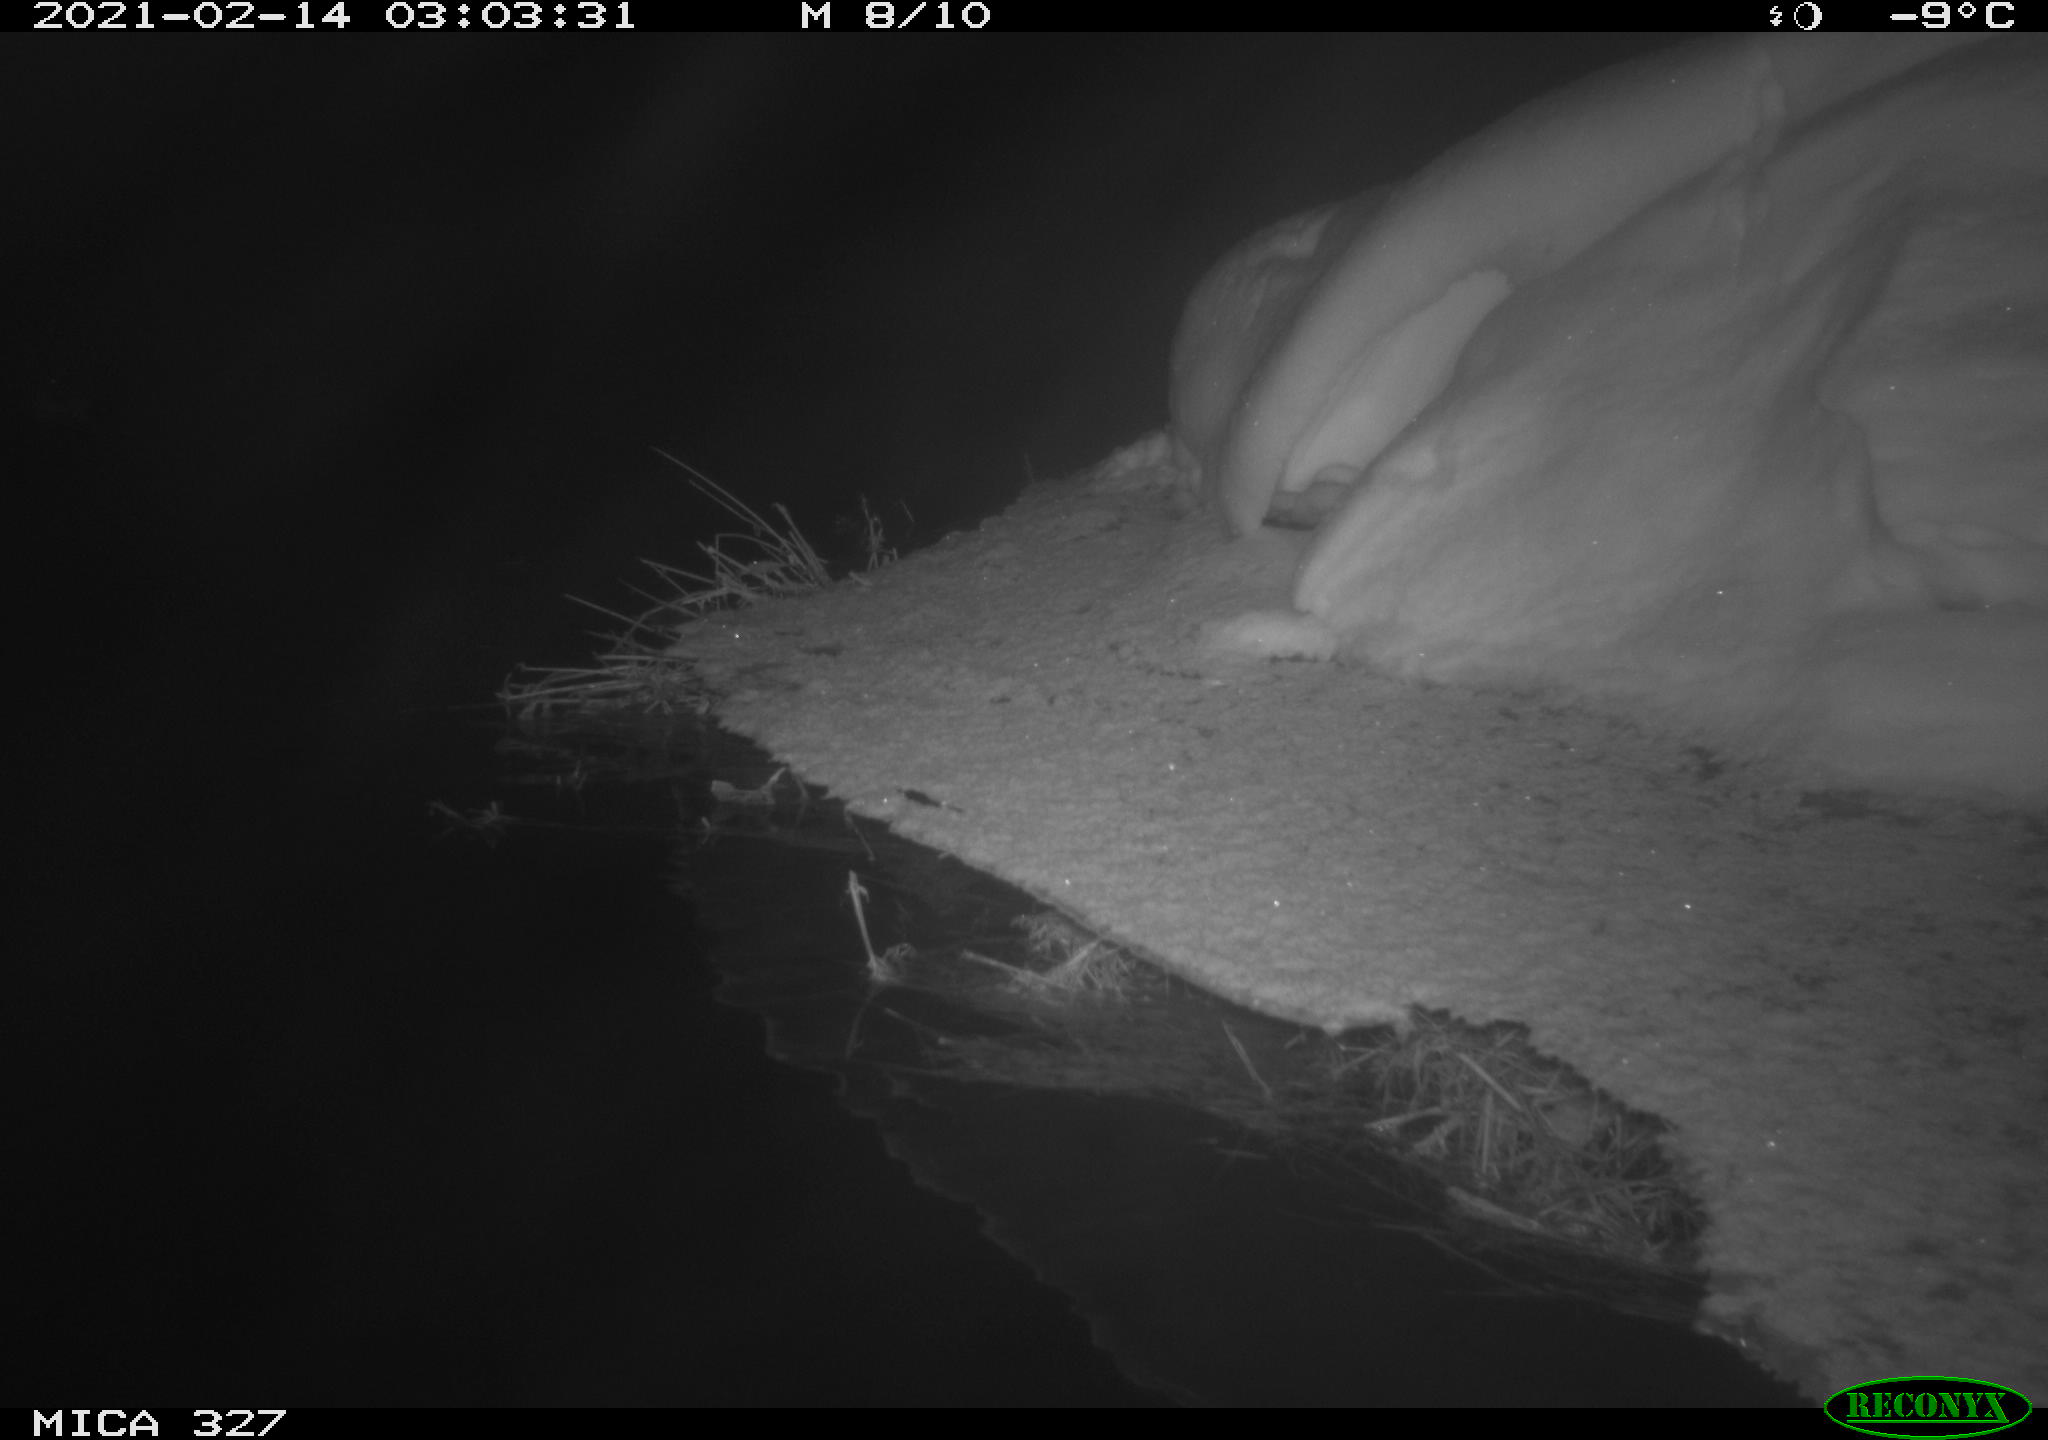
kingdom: Animalia
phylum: Chordata
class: Aves
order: Anseriformes
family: Anatidae
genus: Anas
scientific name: Anas
